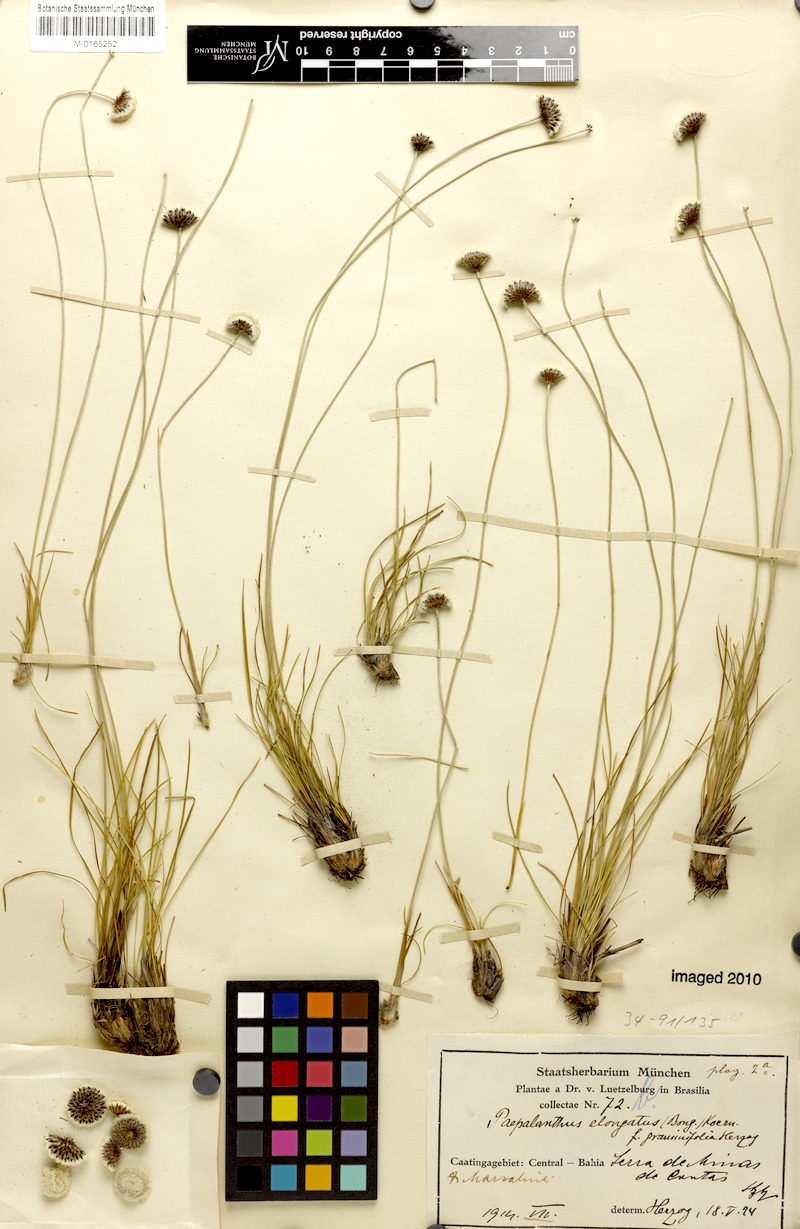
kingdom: Plantae
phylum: Tracheophyta
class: Liliopsida
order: Poales
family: Eriocaulaceae
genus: Paepalanthus
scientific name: Paepalanthus almasensis
